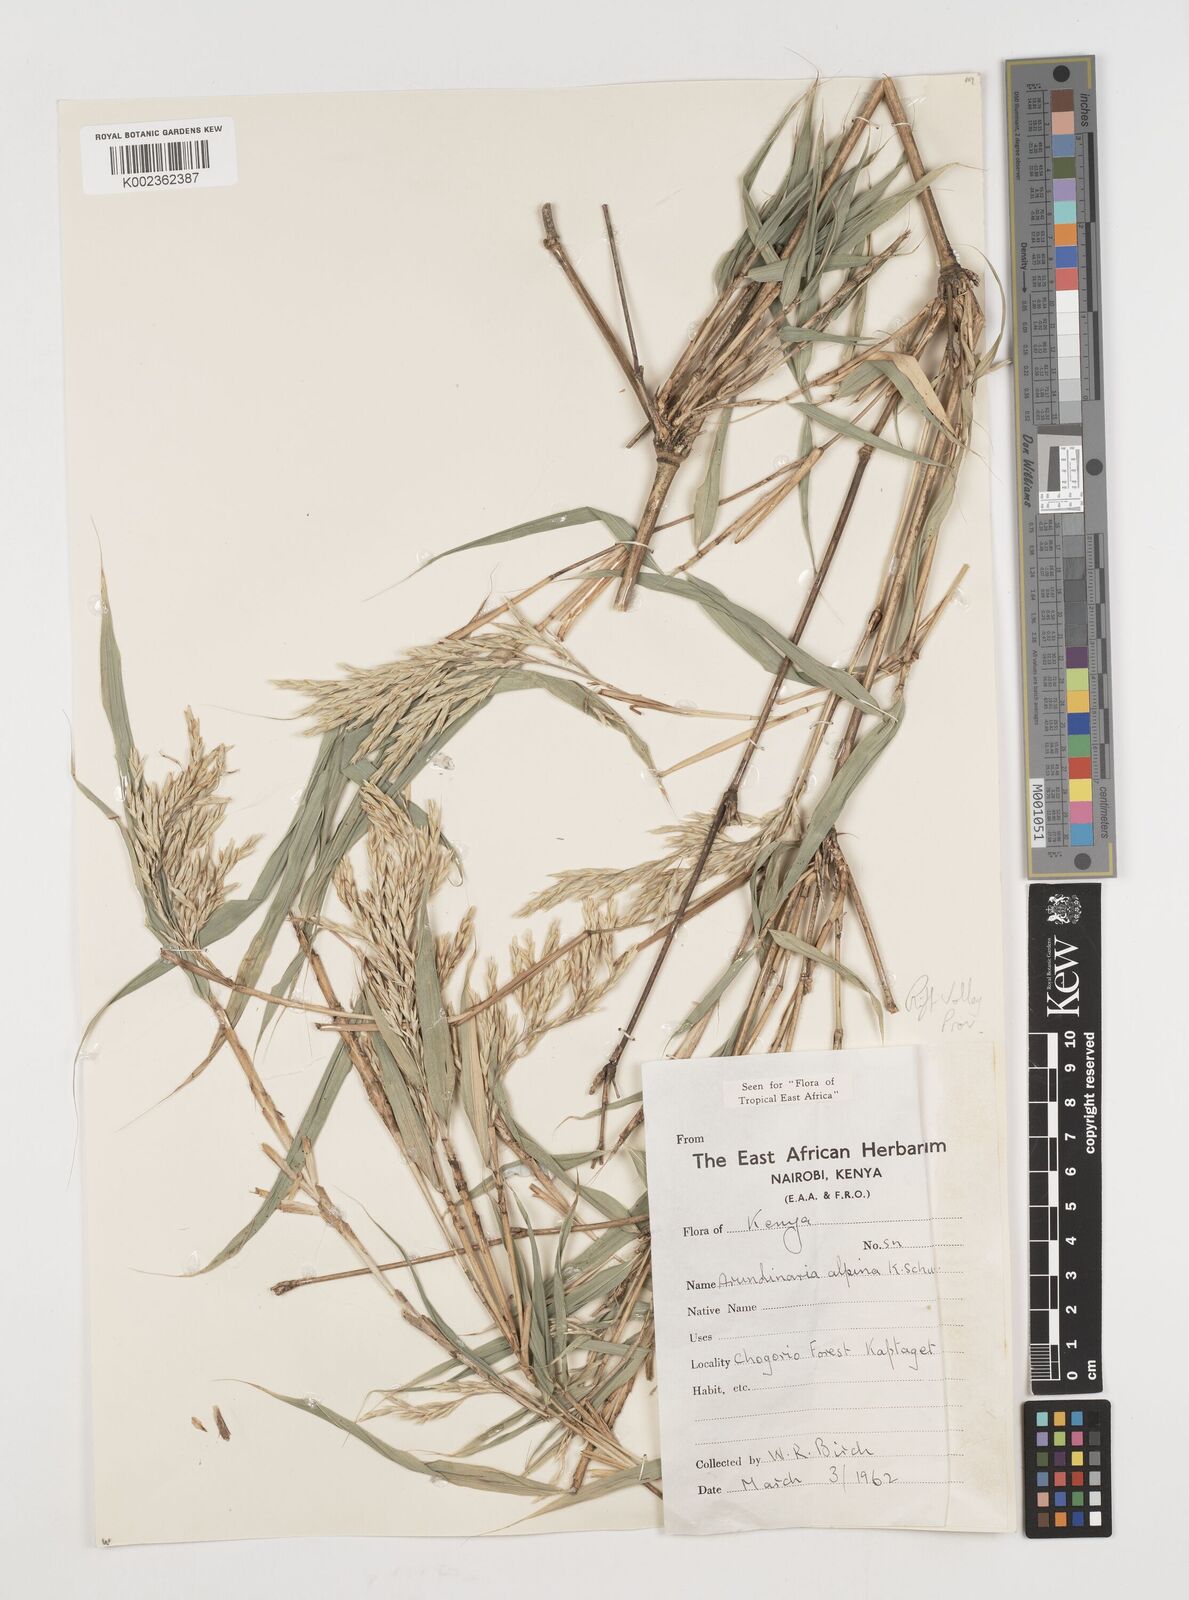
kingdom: Plantae
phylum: Tracheophyta
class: Liliopsida
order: Poales
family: Poaceae
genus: Oldeania
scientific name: Oldeania alpina
